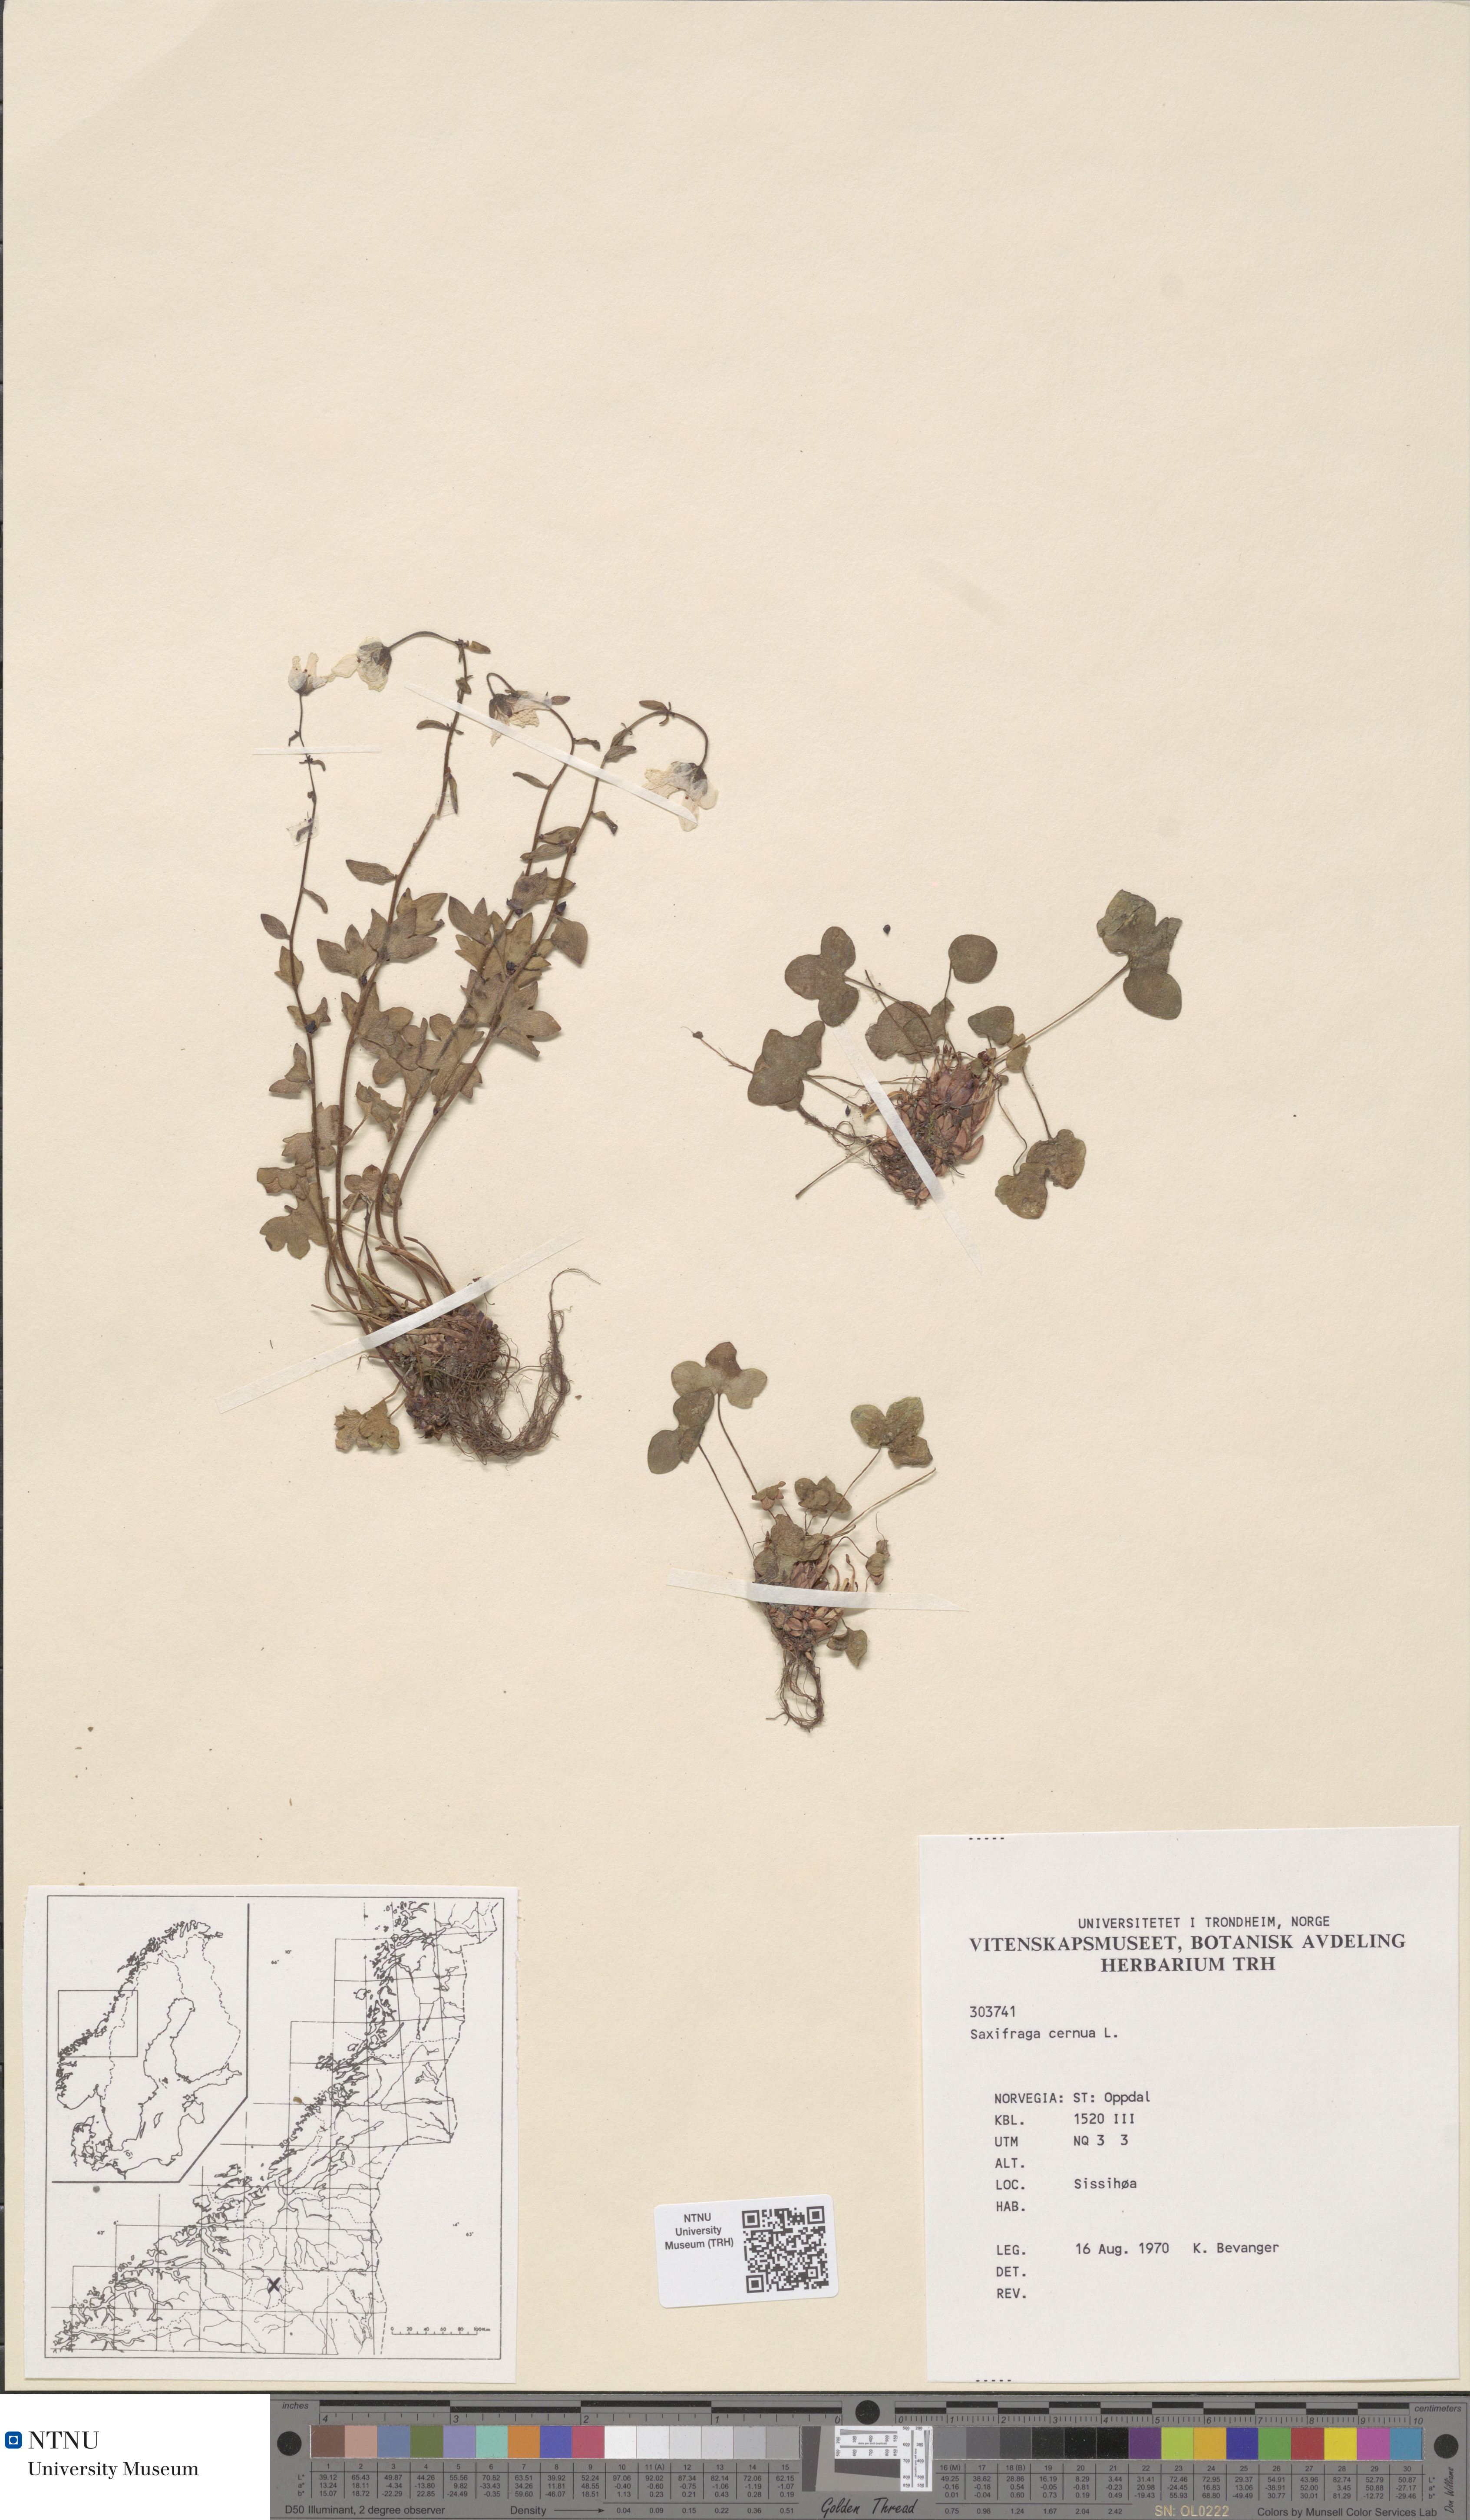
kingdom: Plantae
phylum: Tracheophyta
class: Magnoliopsida
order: Saxifragales
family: Saxifragaceae
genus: Saxifraga
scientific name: Saxifraga cernua
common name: Drooping saxifrage
